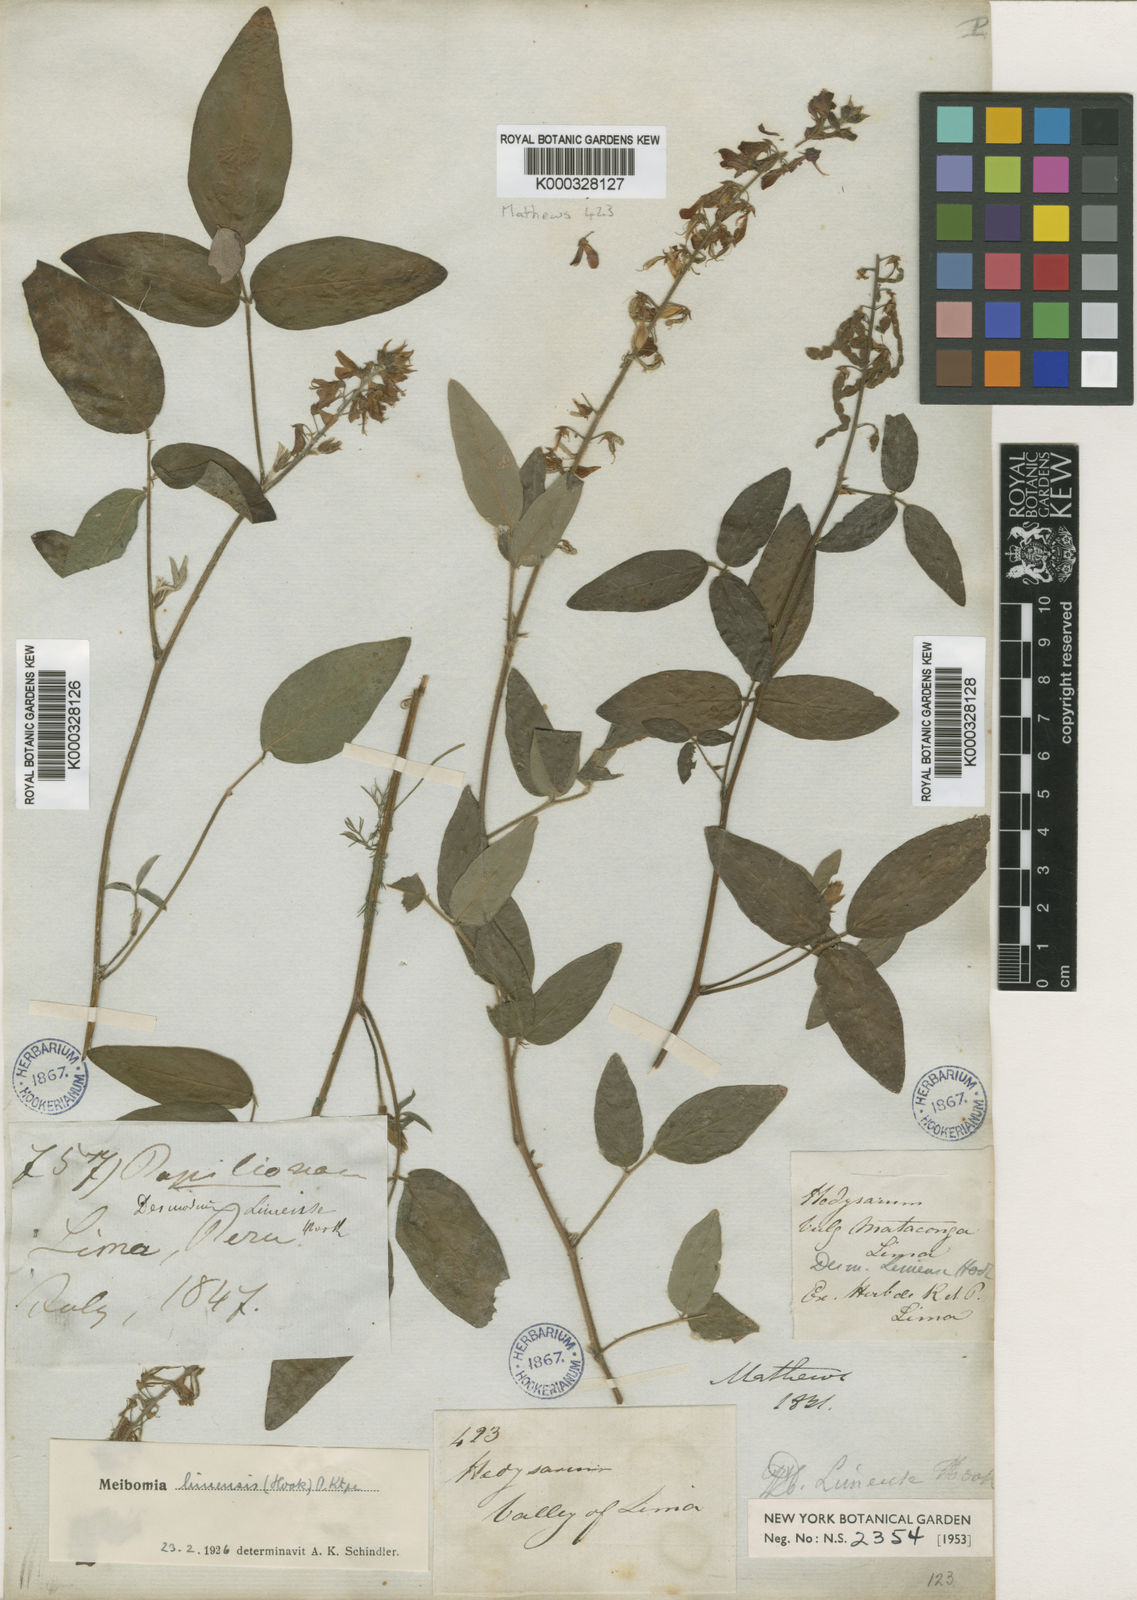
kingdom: Plantae
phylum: Tracheophyta
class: Magnoliopsida
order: Fabales
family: Fabaceae
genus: Desmodium
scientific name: Desmodium limense
